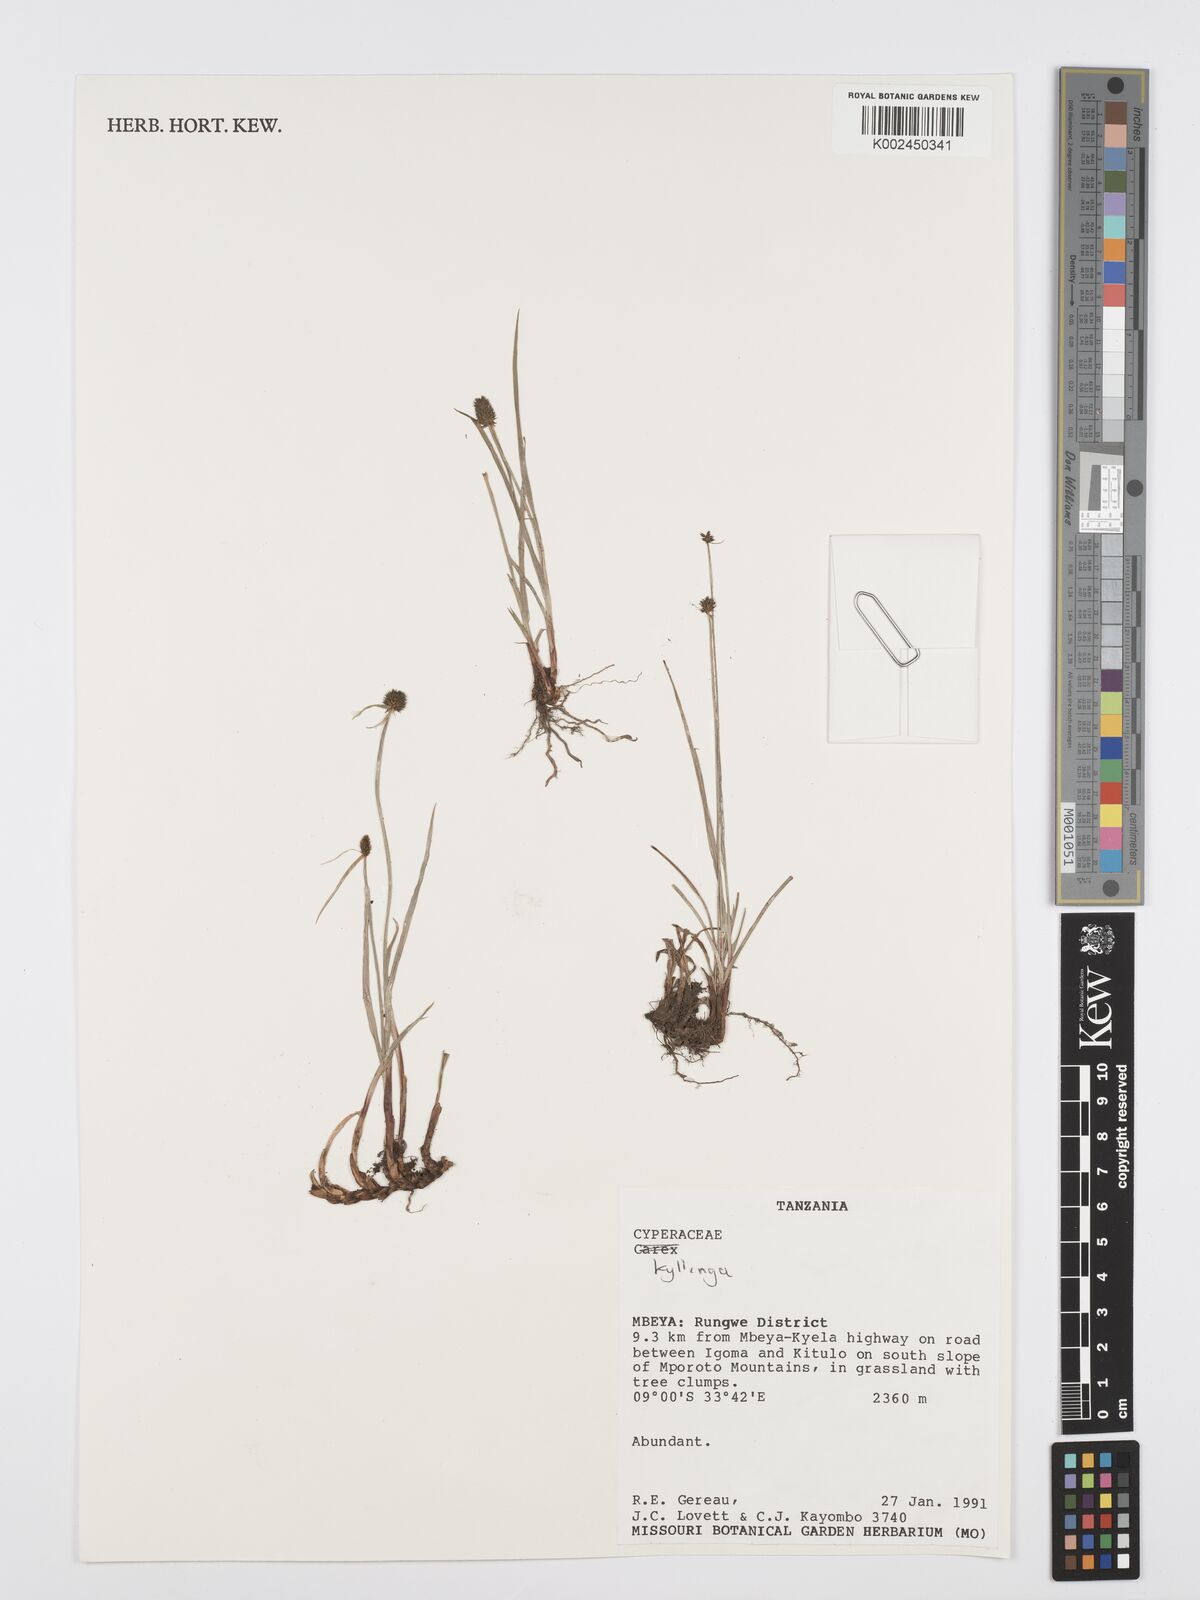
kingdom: Plantae
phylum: Tracheophyta
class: Liliopsida
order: Poales
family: Cyperaceae
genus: Cyperus
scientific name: Cyperus
